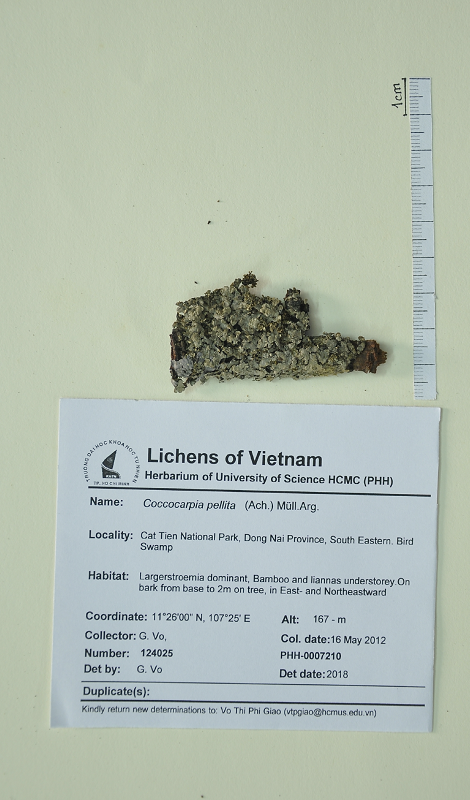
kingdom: Fungi
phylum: Ascomycota
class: Lecanoromycetes
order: Peltigerales
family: Coccocarpiaceae
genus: Coccocarpia
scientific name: Coccocarpia pellita
